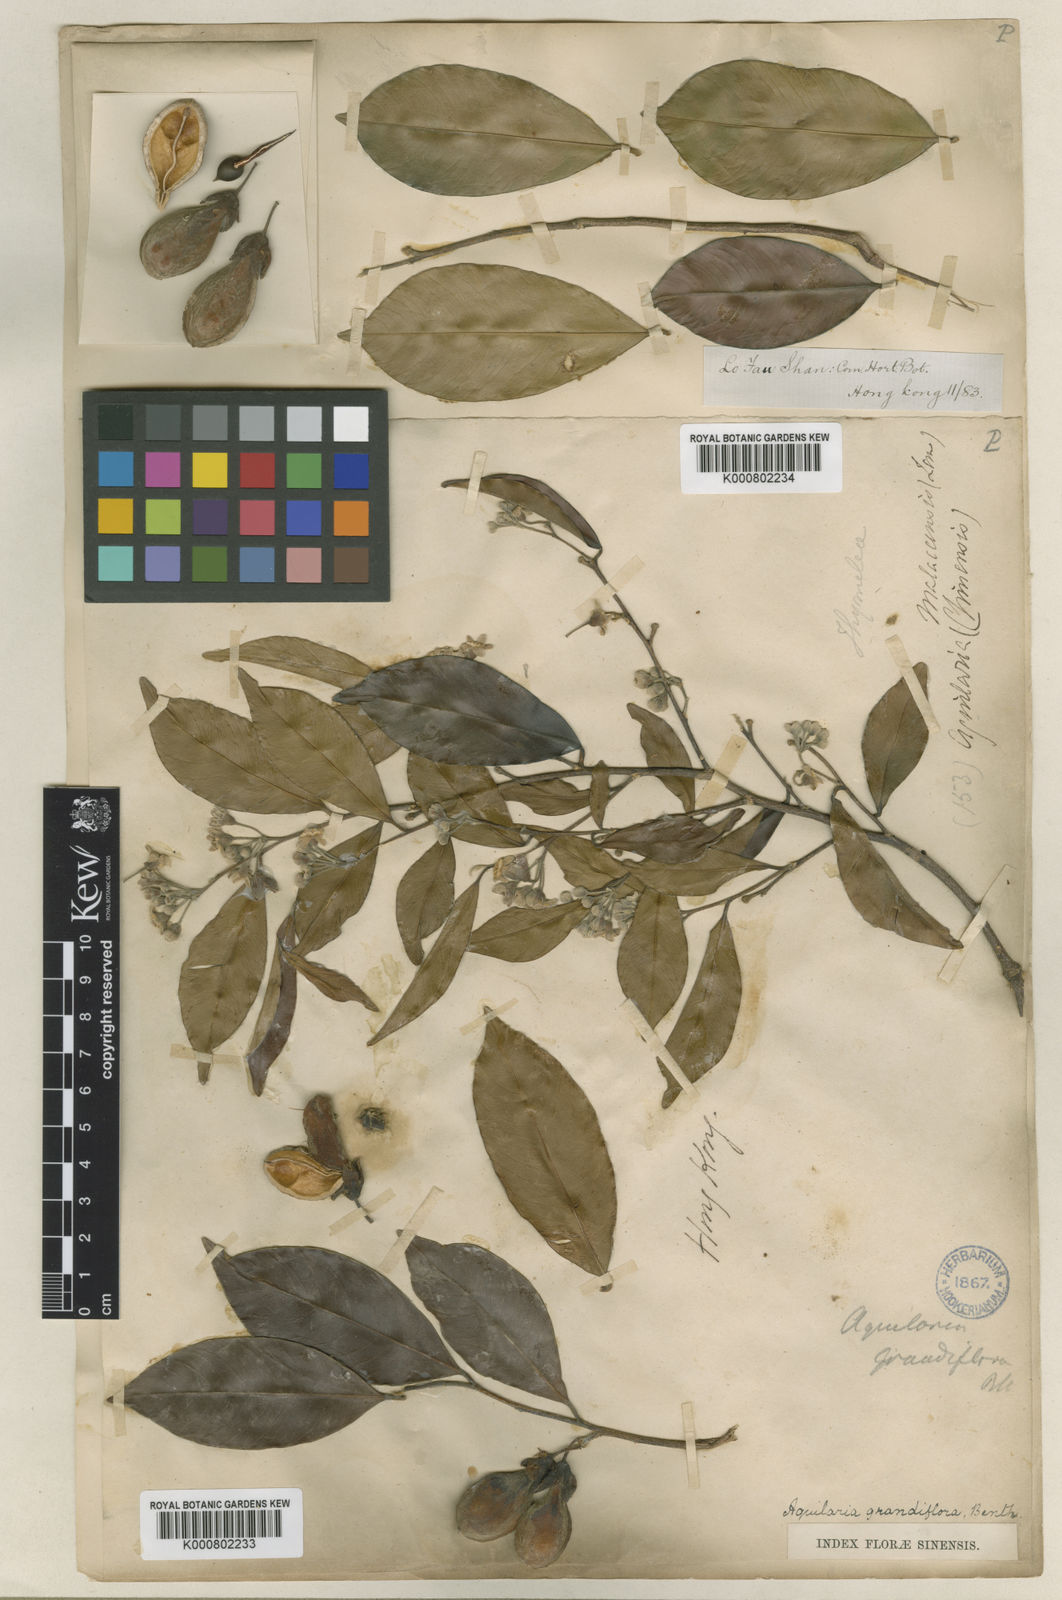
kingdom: Plantae
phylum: Tracheophyta
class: Magnoliopsida
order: Malvales
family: Thymelaeaceae
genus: Aquilaria
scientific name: Aquilaria sinensis
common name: Chinese agarwood
